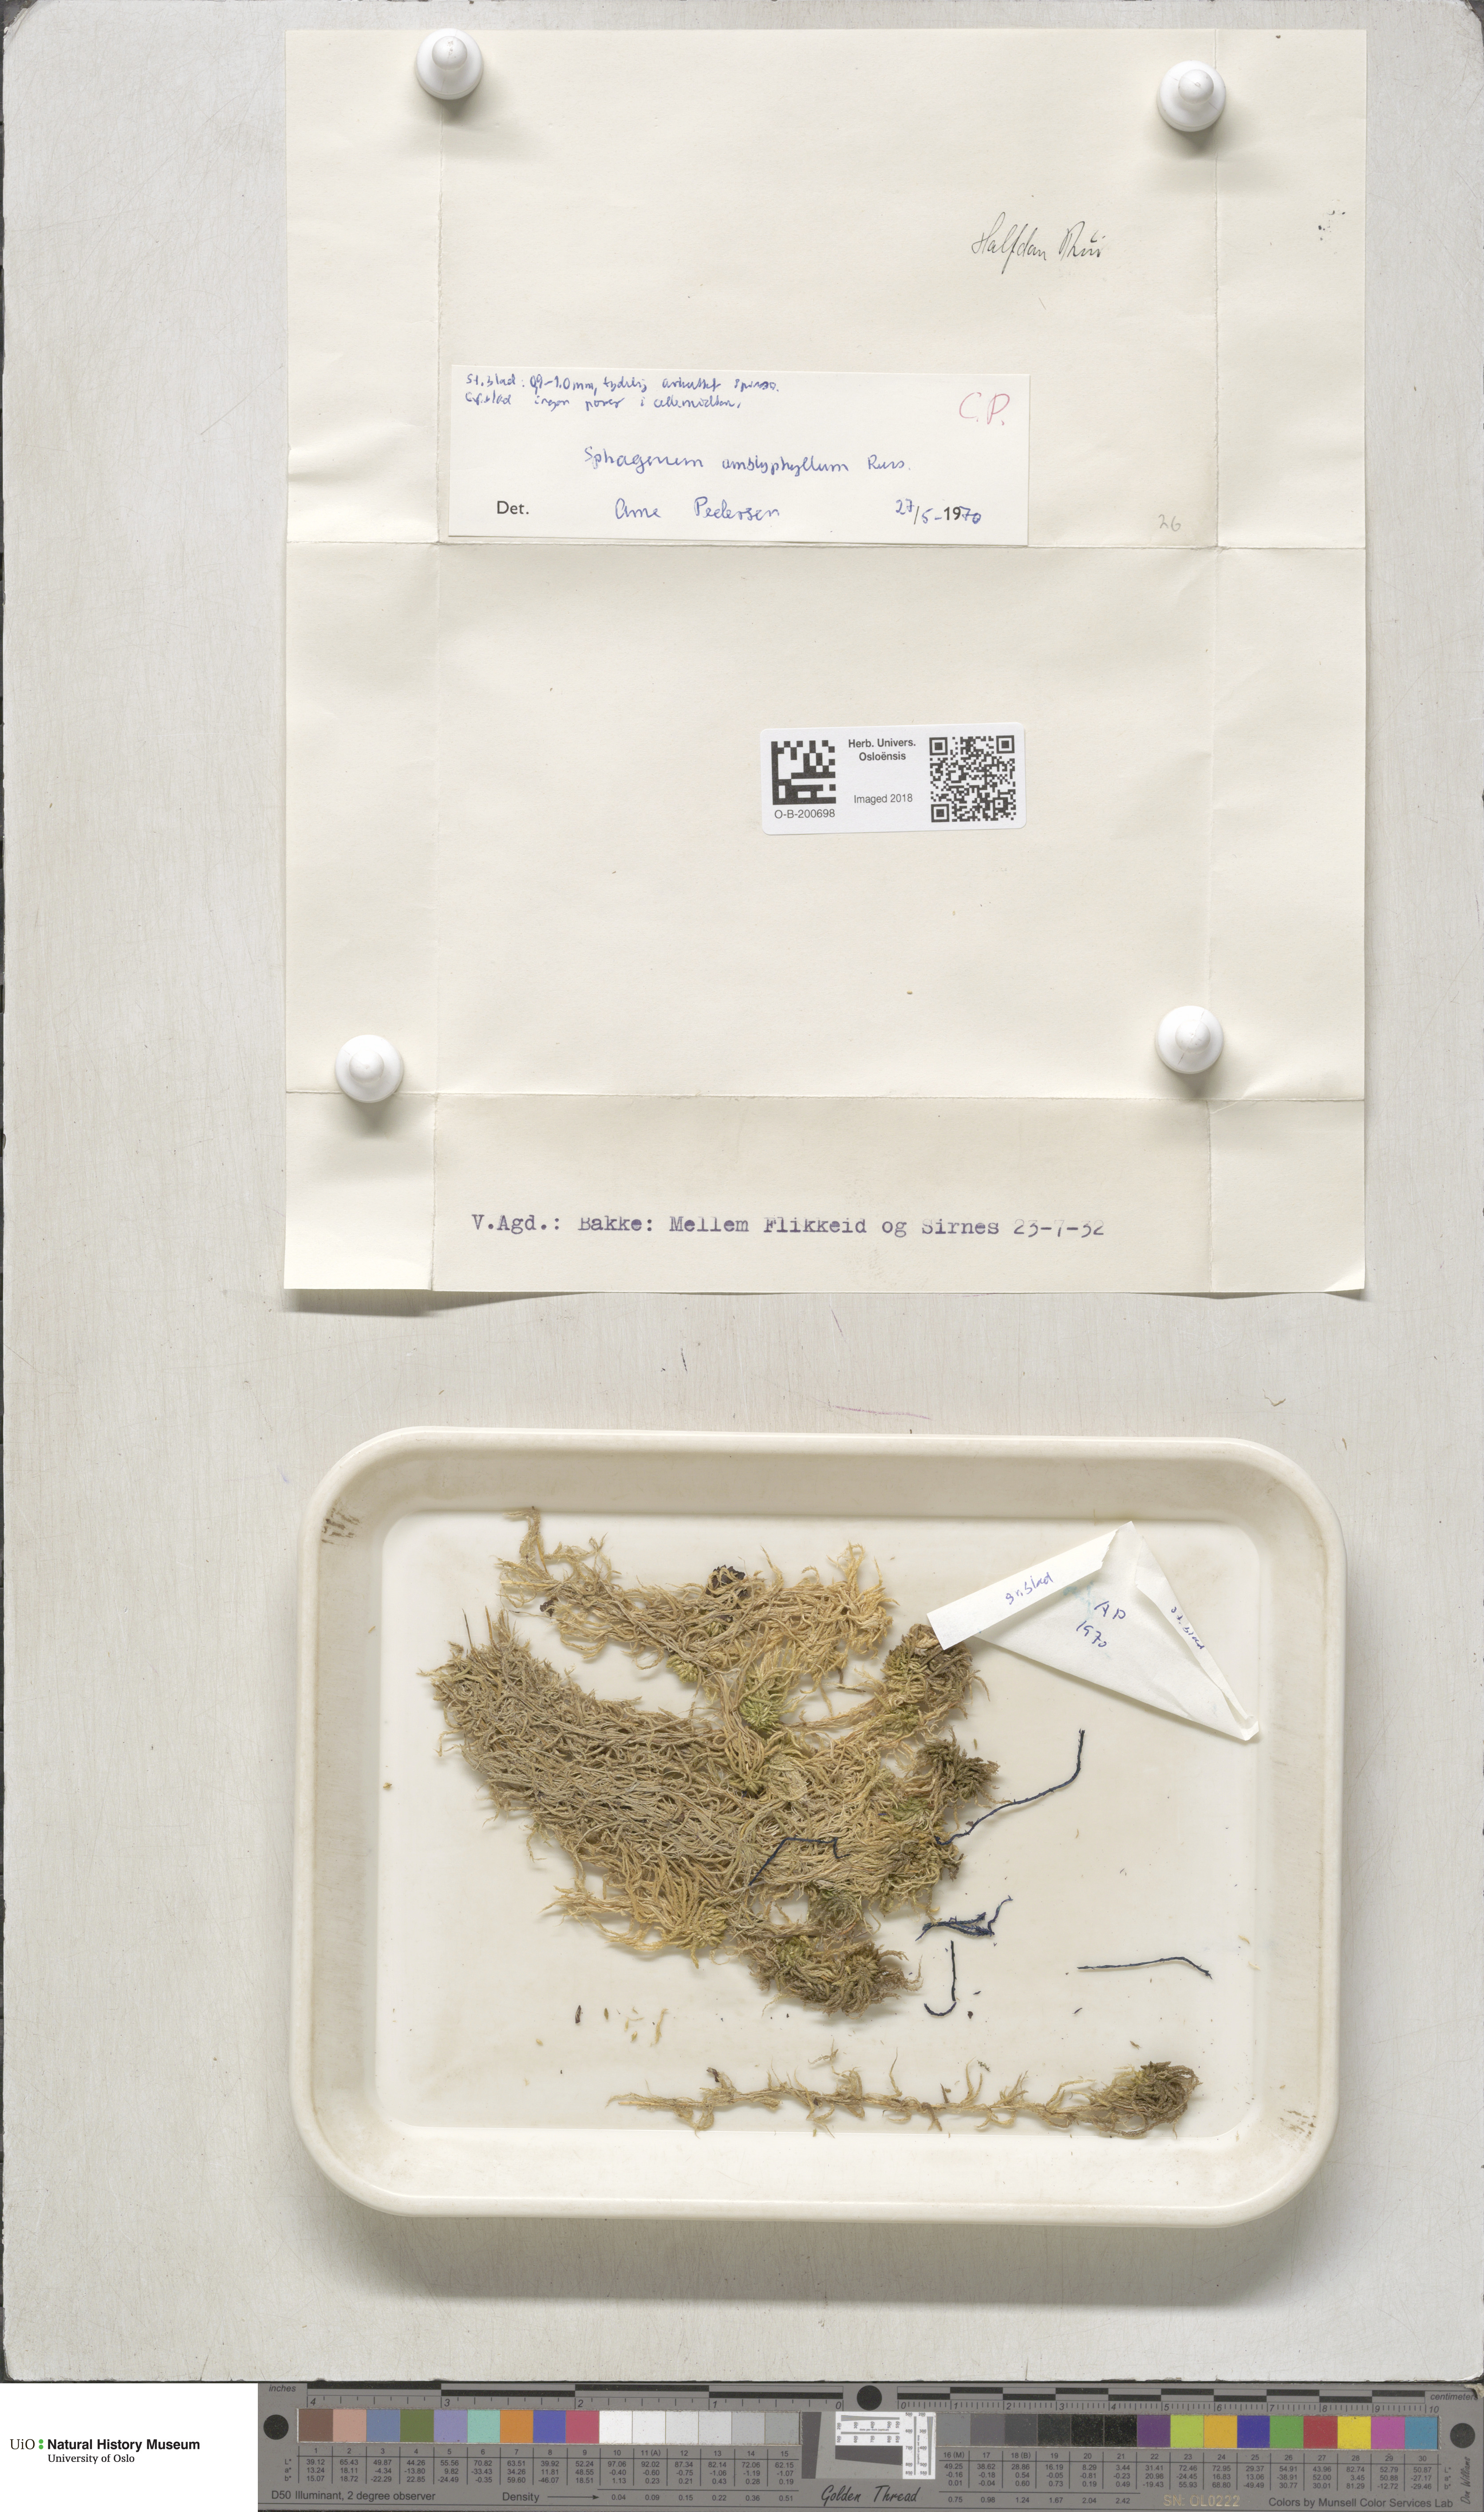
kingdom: Plantae
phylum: Bryophyta
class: Sphagnopsida
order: Sphagnales
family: Sphagnaceae
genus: Sphagnum
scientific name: Sphagnum flexuosum
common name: Flexible peat moss
